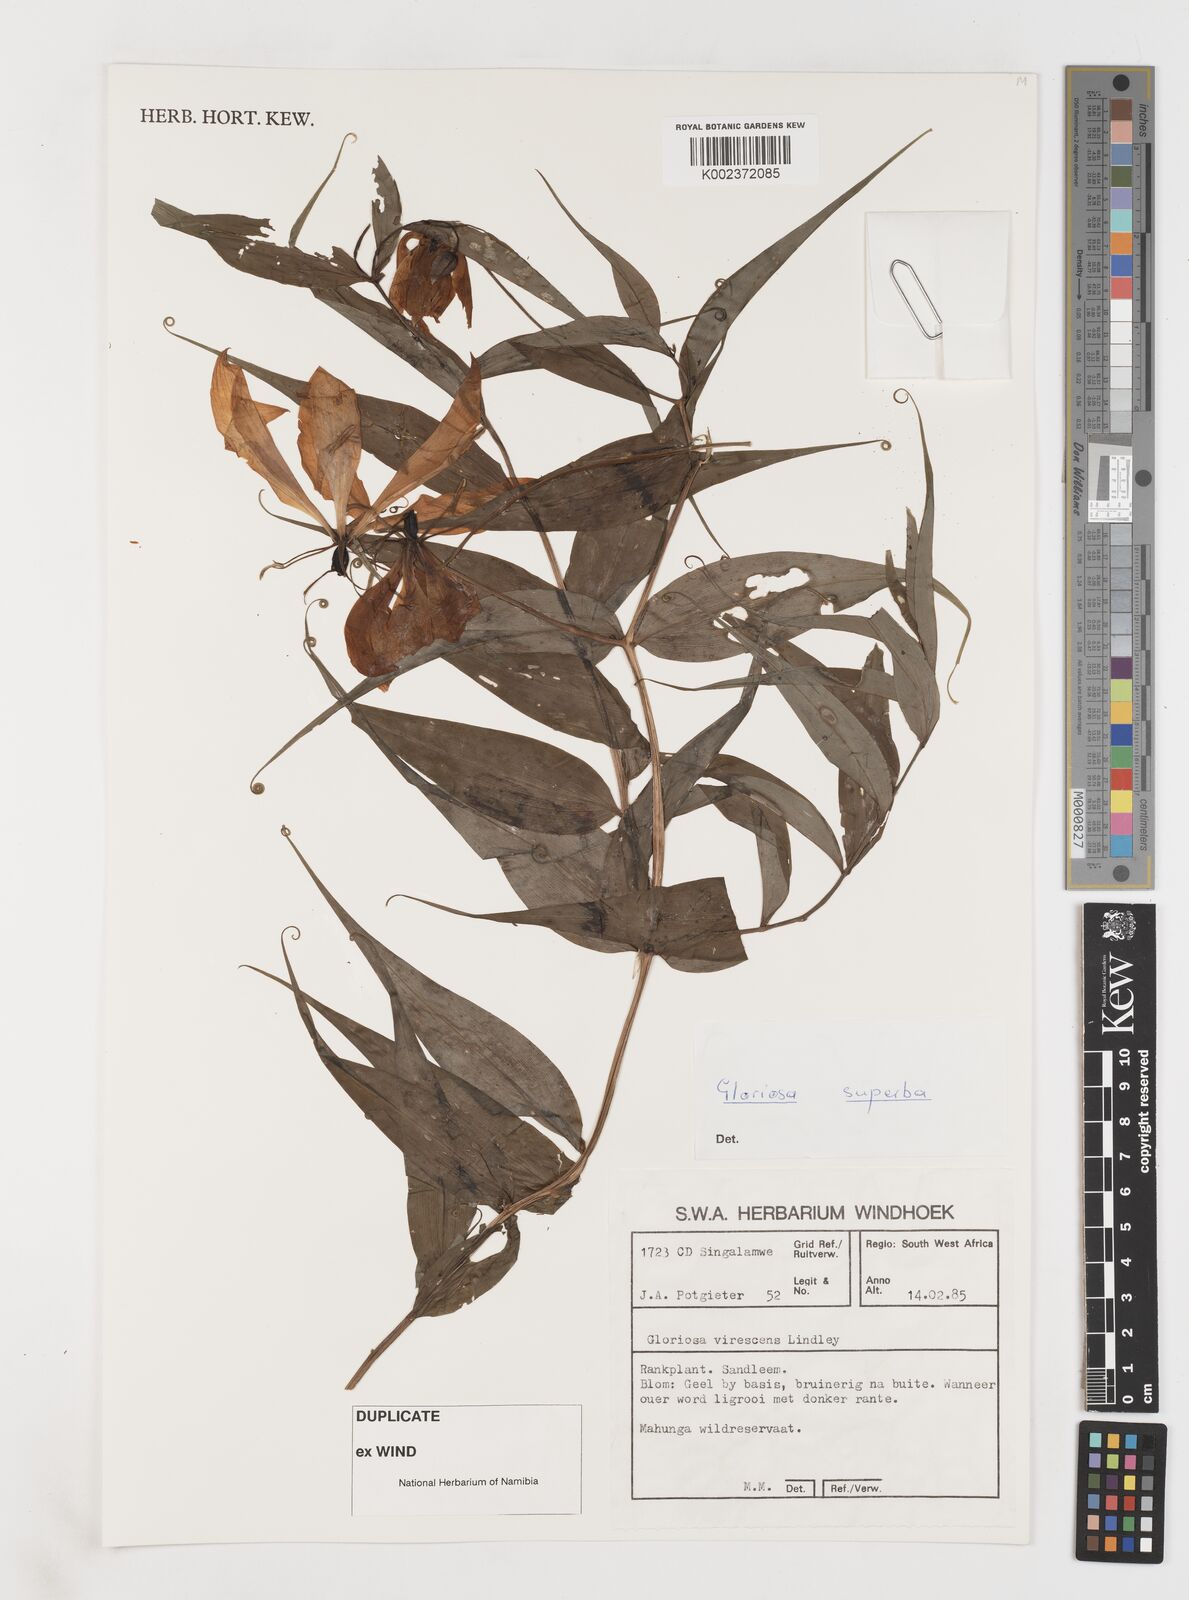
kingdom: Plantae
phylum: Tracheophyta
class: Liliopsida
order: Liliales
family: Colchicaceae
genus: Gloriosa
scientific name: Gloriosa simplex
